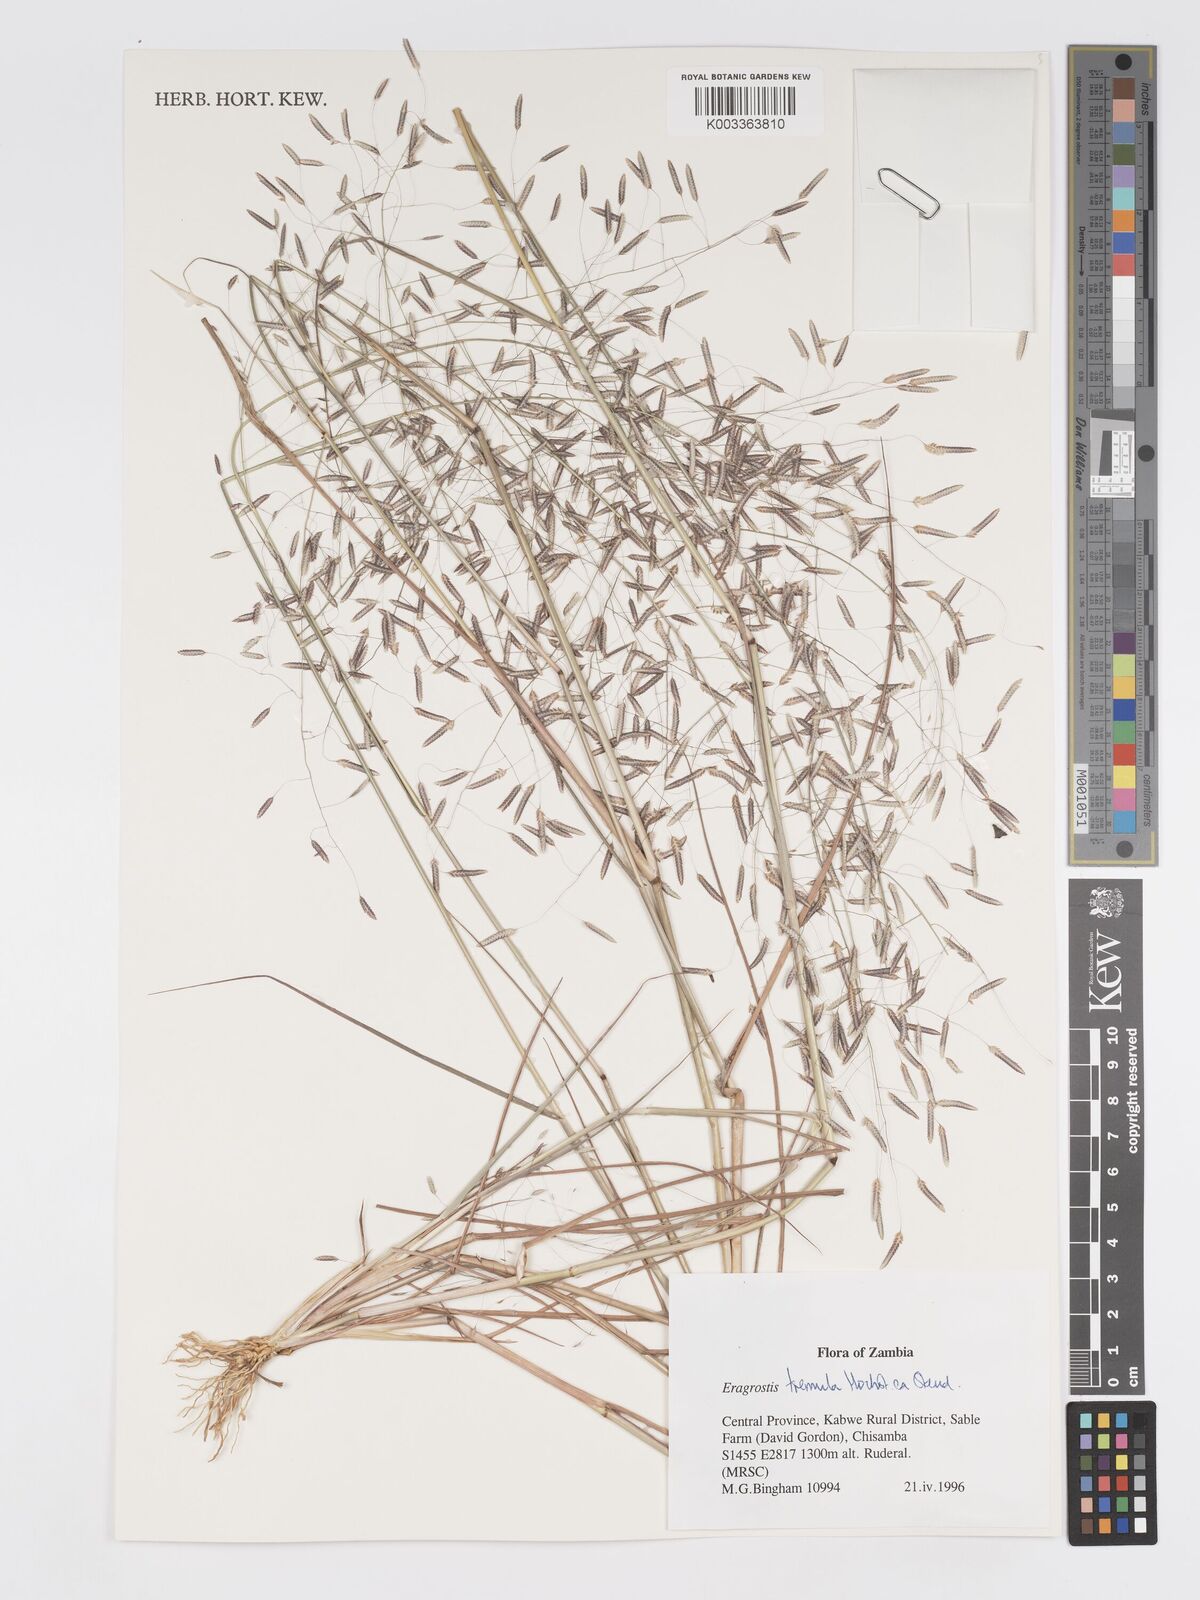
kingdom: Plantae
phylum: Tracheophyta
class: Liliopsida
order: Poales
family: Poaceae
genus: Eragrostis
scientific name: Eragrostis tremula
